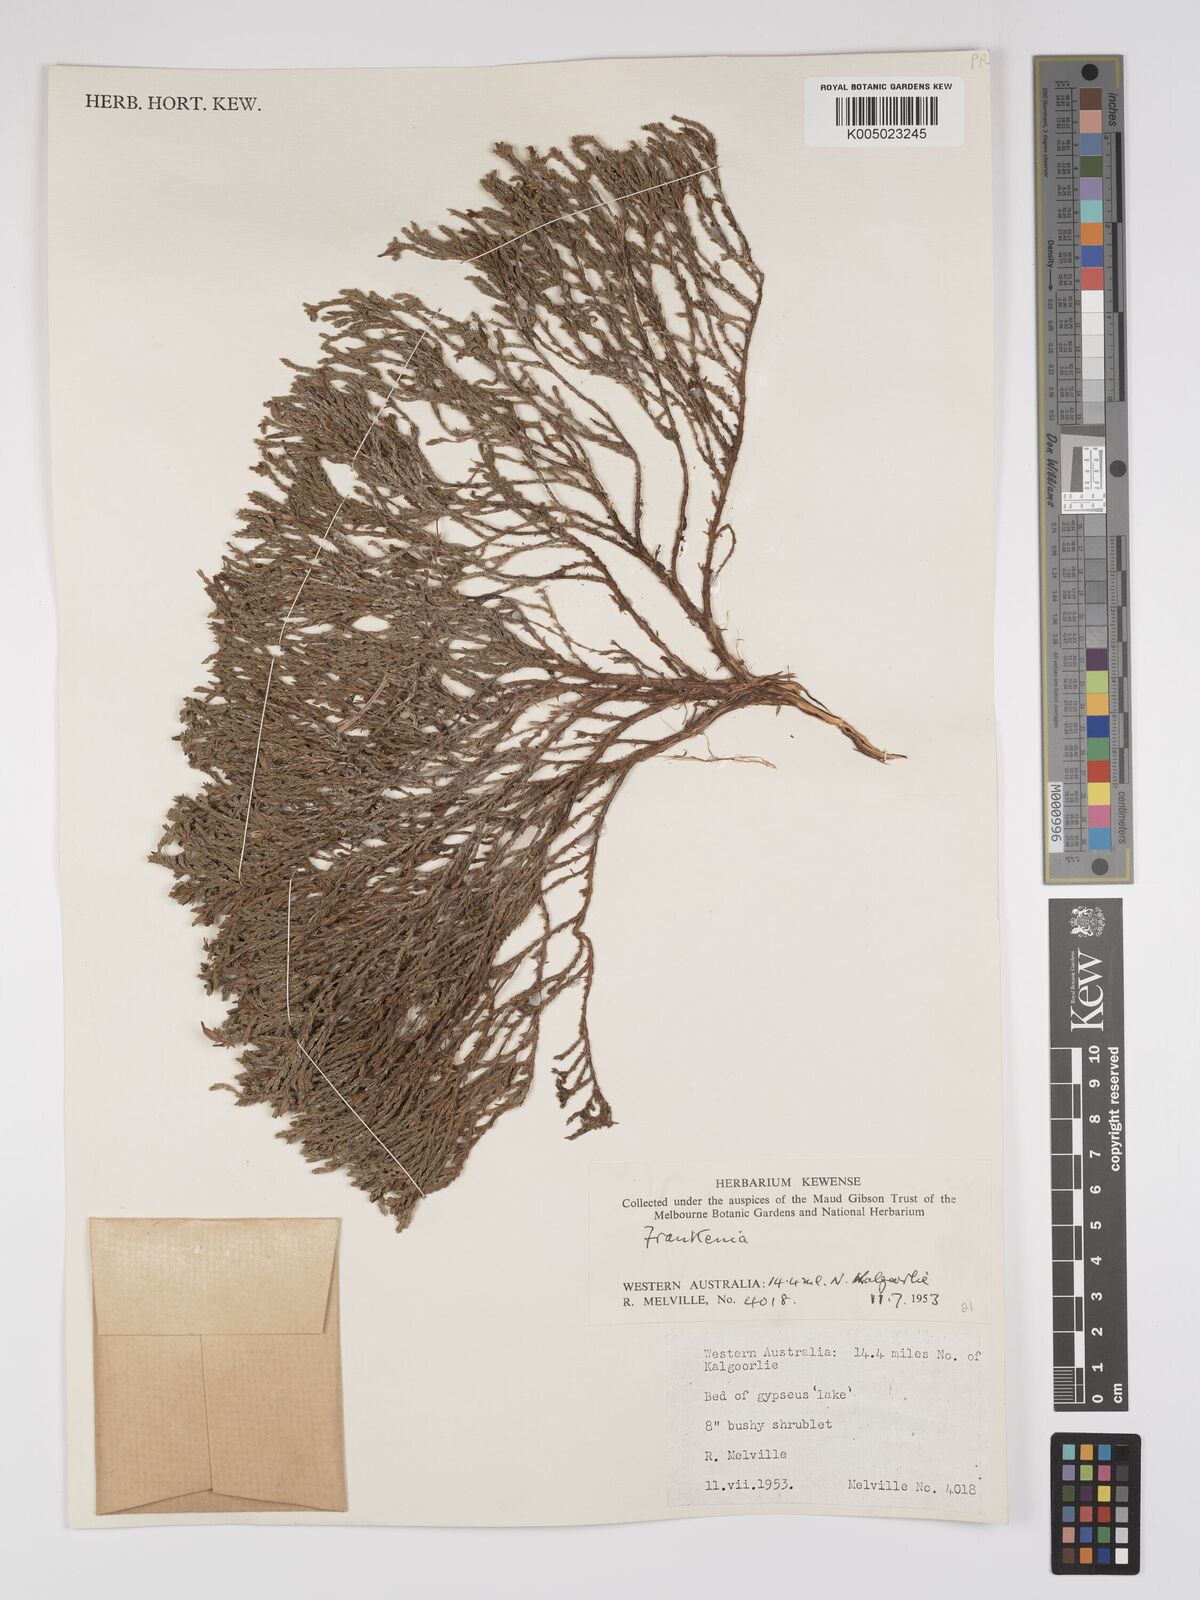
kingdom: Plantae
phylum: Tracheophyta
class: Magnoliopsida
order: Caryophyllales
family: Frankeniaceae
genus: Frankenia
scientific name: Frankenia
